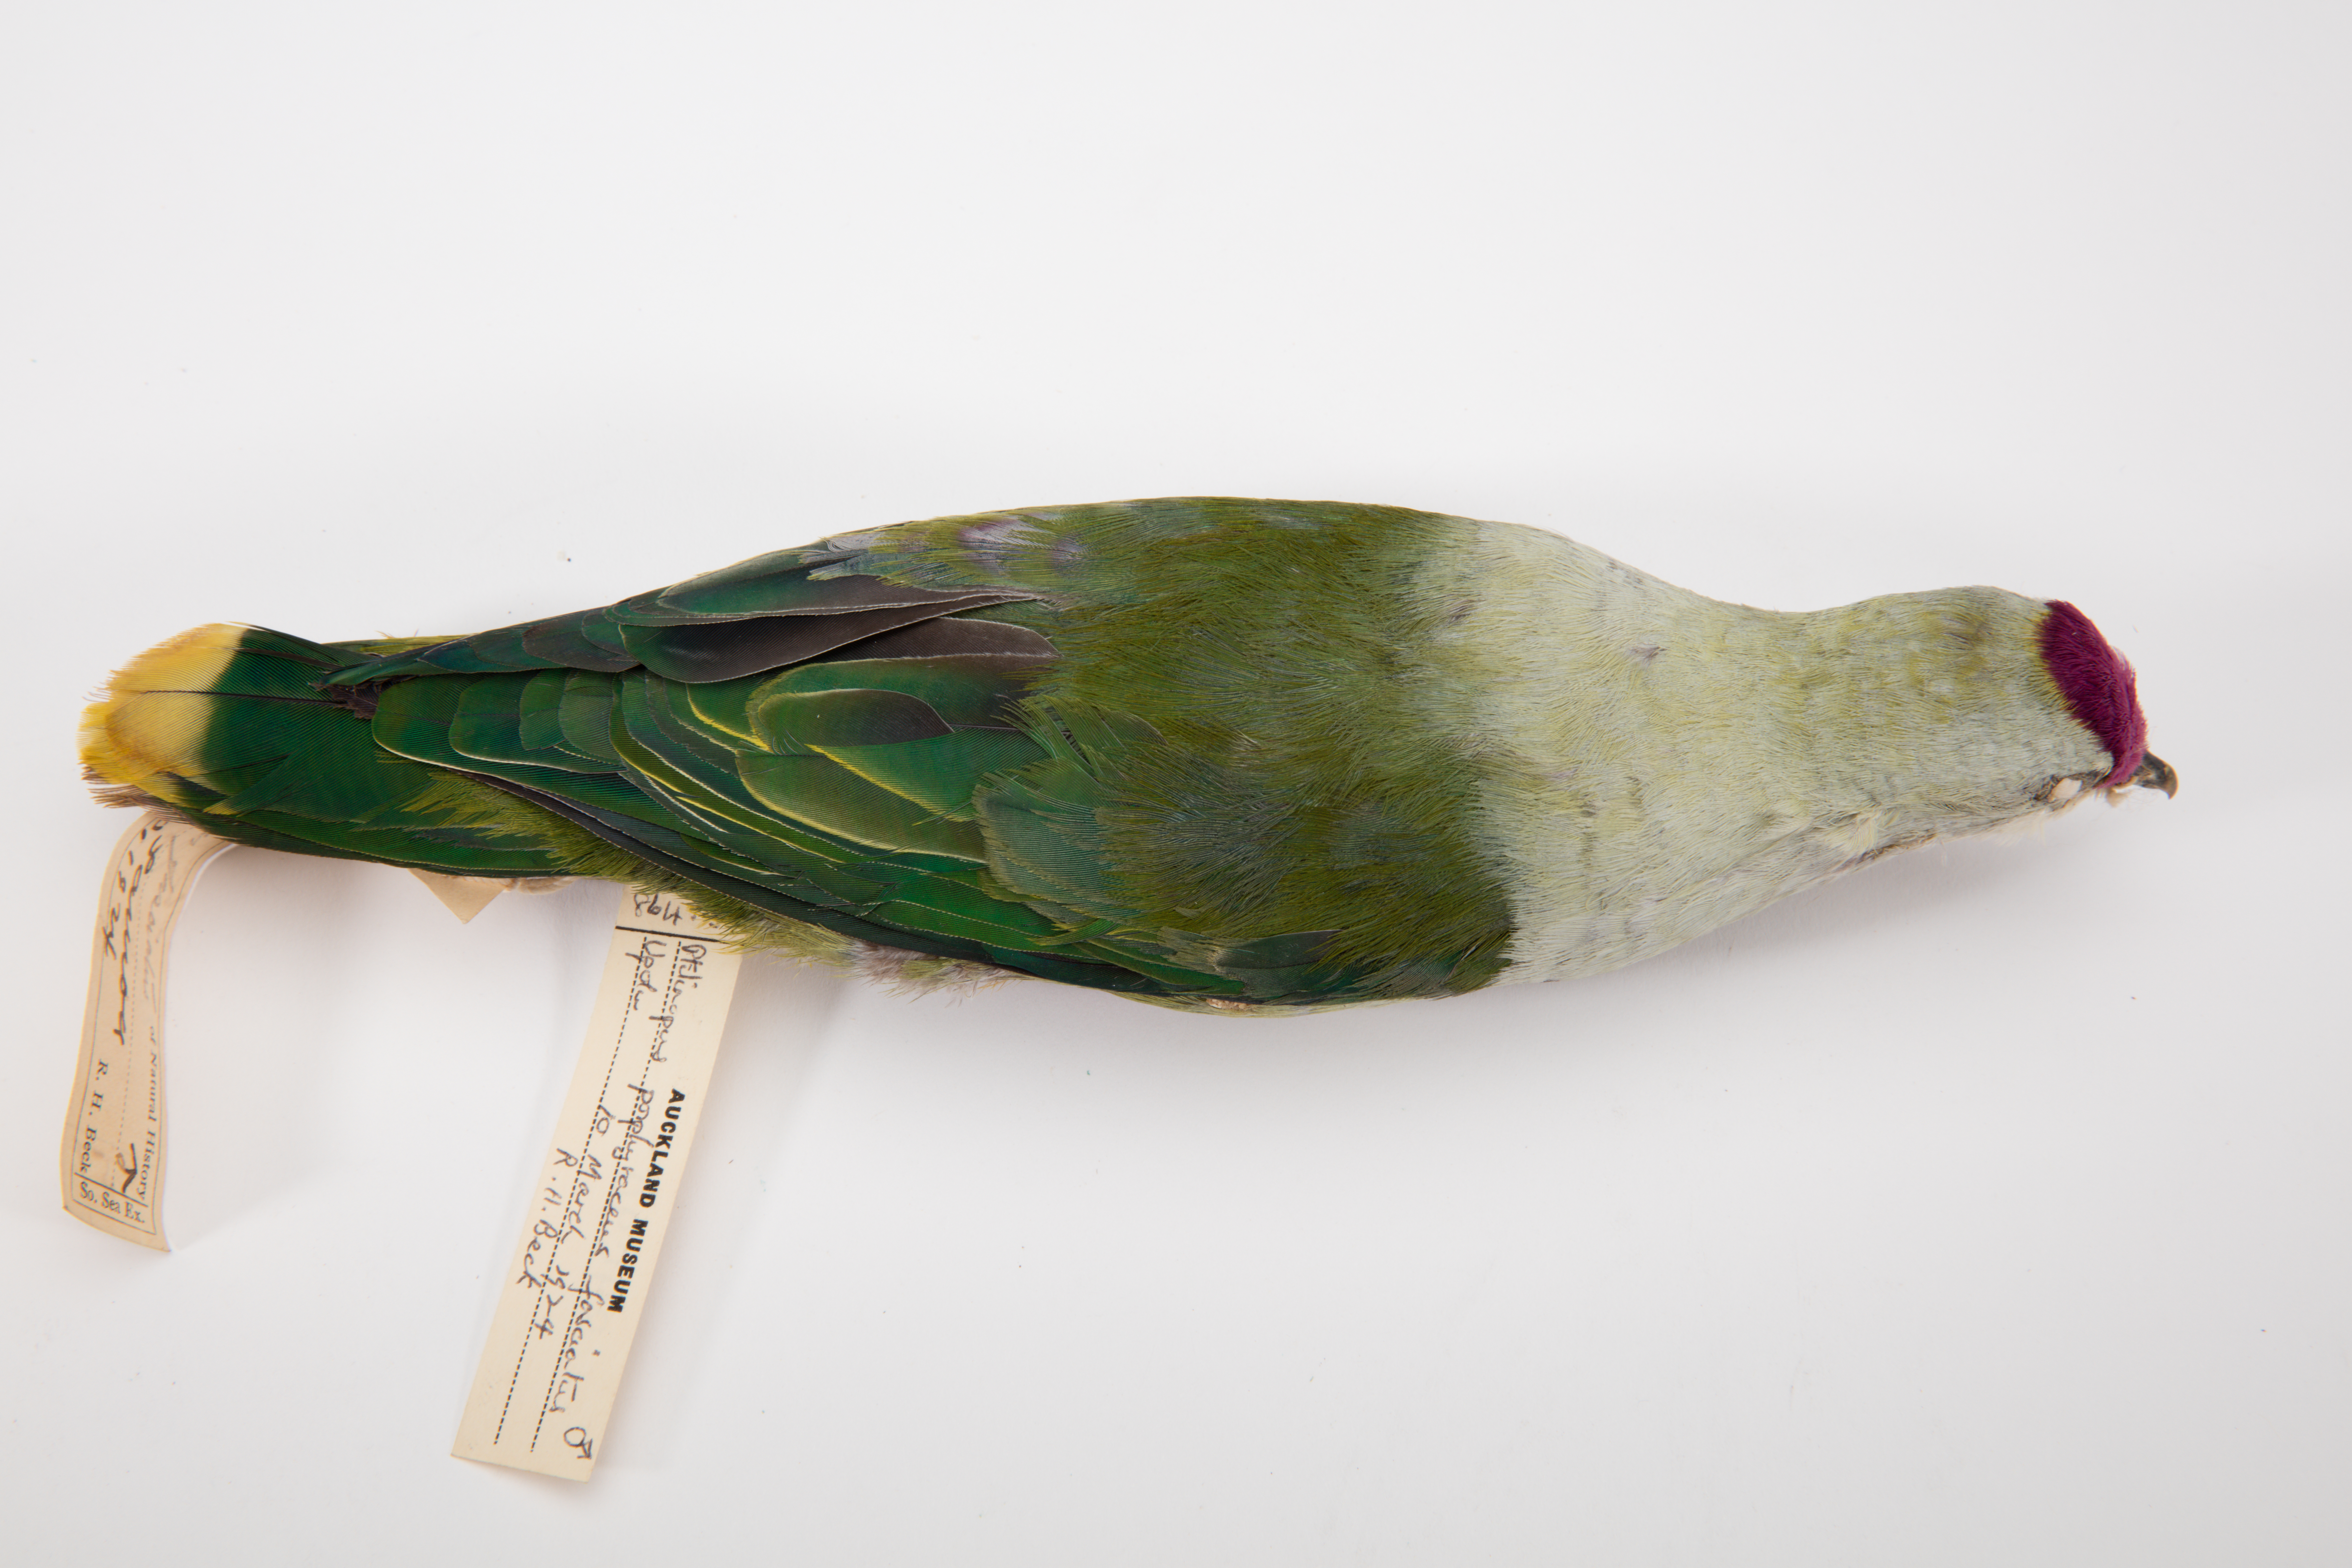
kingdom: Animalia
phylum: Chordata
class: Aves
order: Columbiformes
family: Columbidae
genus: Ptilinopus
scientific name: Ptilinopus porphyraceus
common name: Crimson-crowned fruit dove
